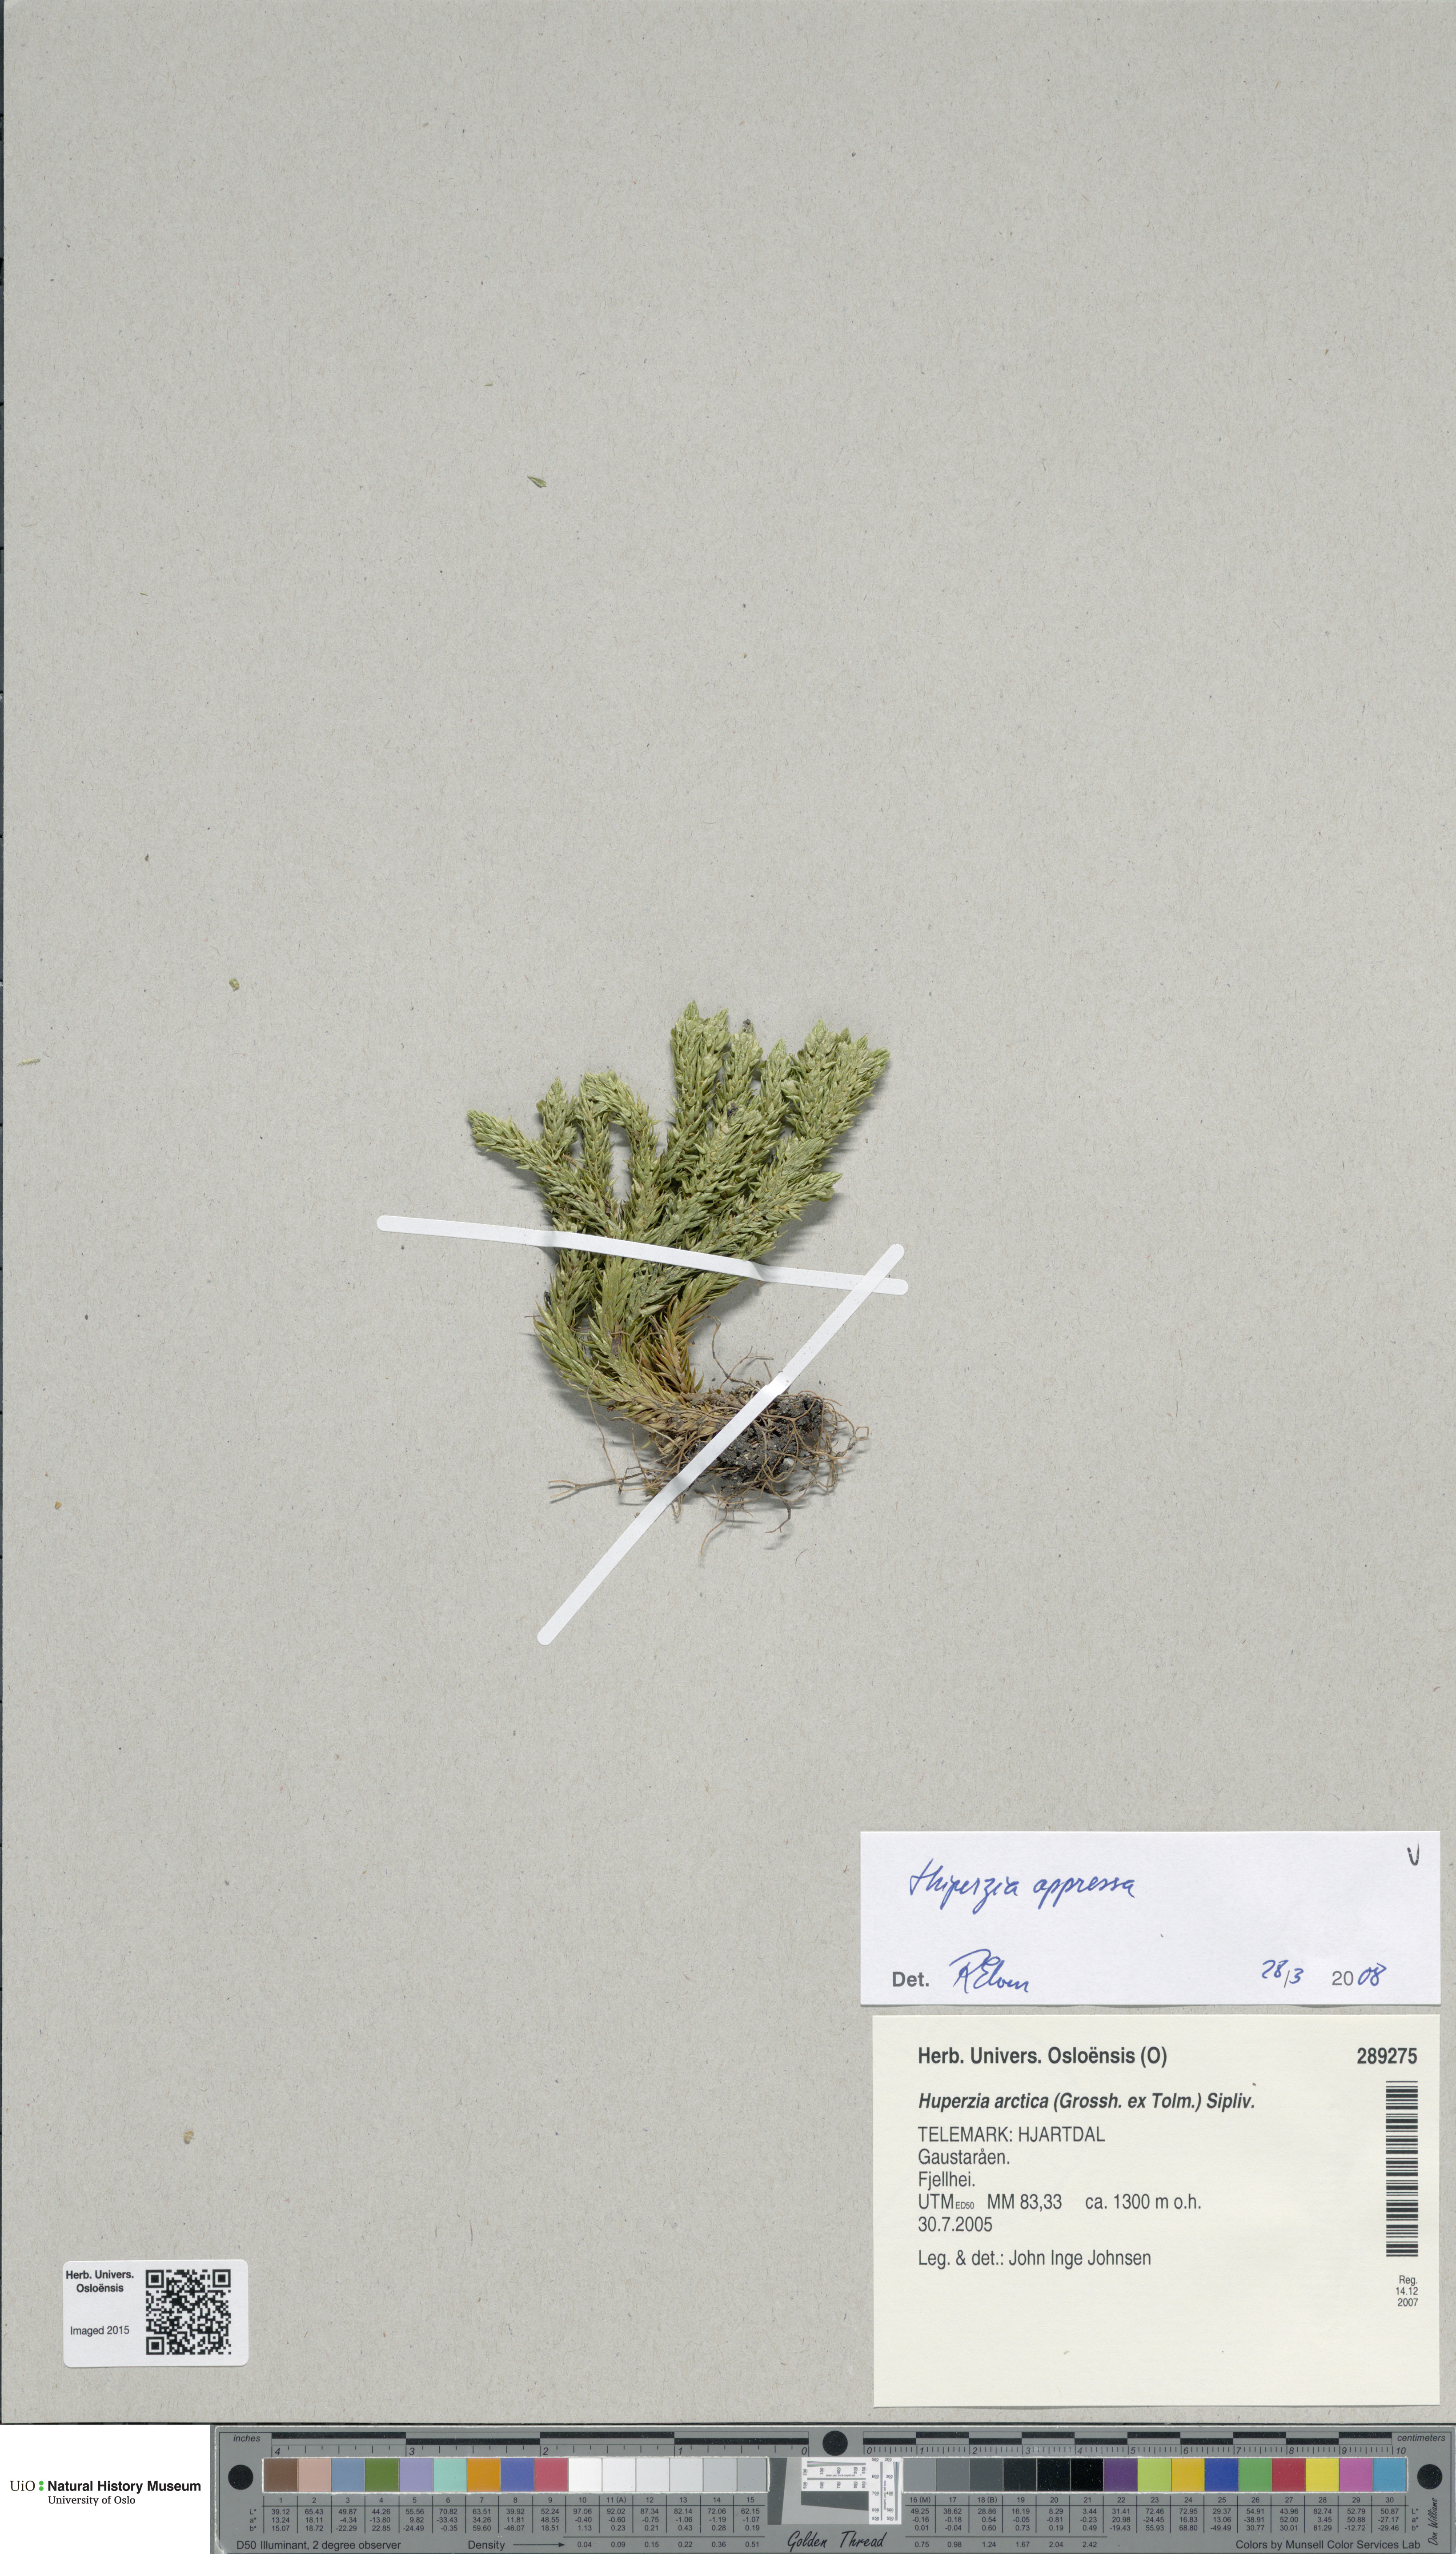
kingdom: Plantae
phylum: Tracheophyta
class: Lycopodiopsida
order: Lycopodiales
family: Lycopodiaceae
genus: Huperzia
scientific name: Huperzia selago
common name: Northern firmoss
